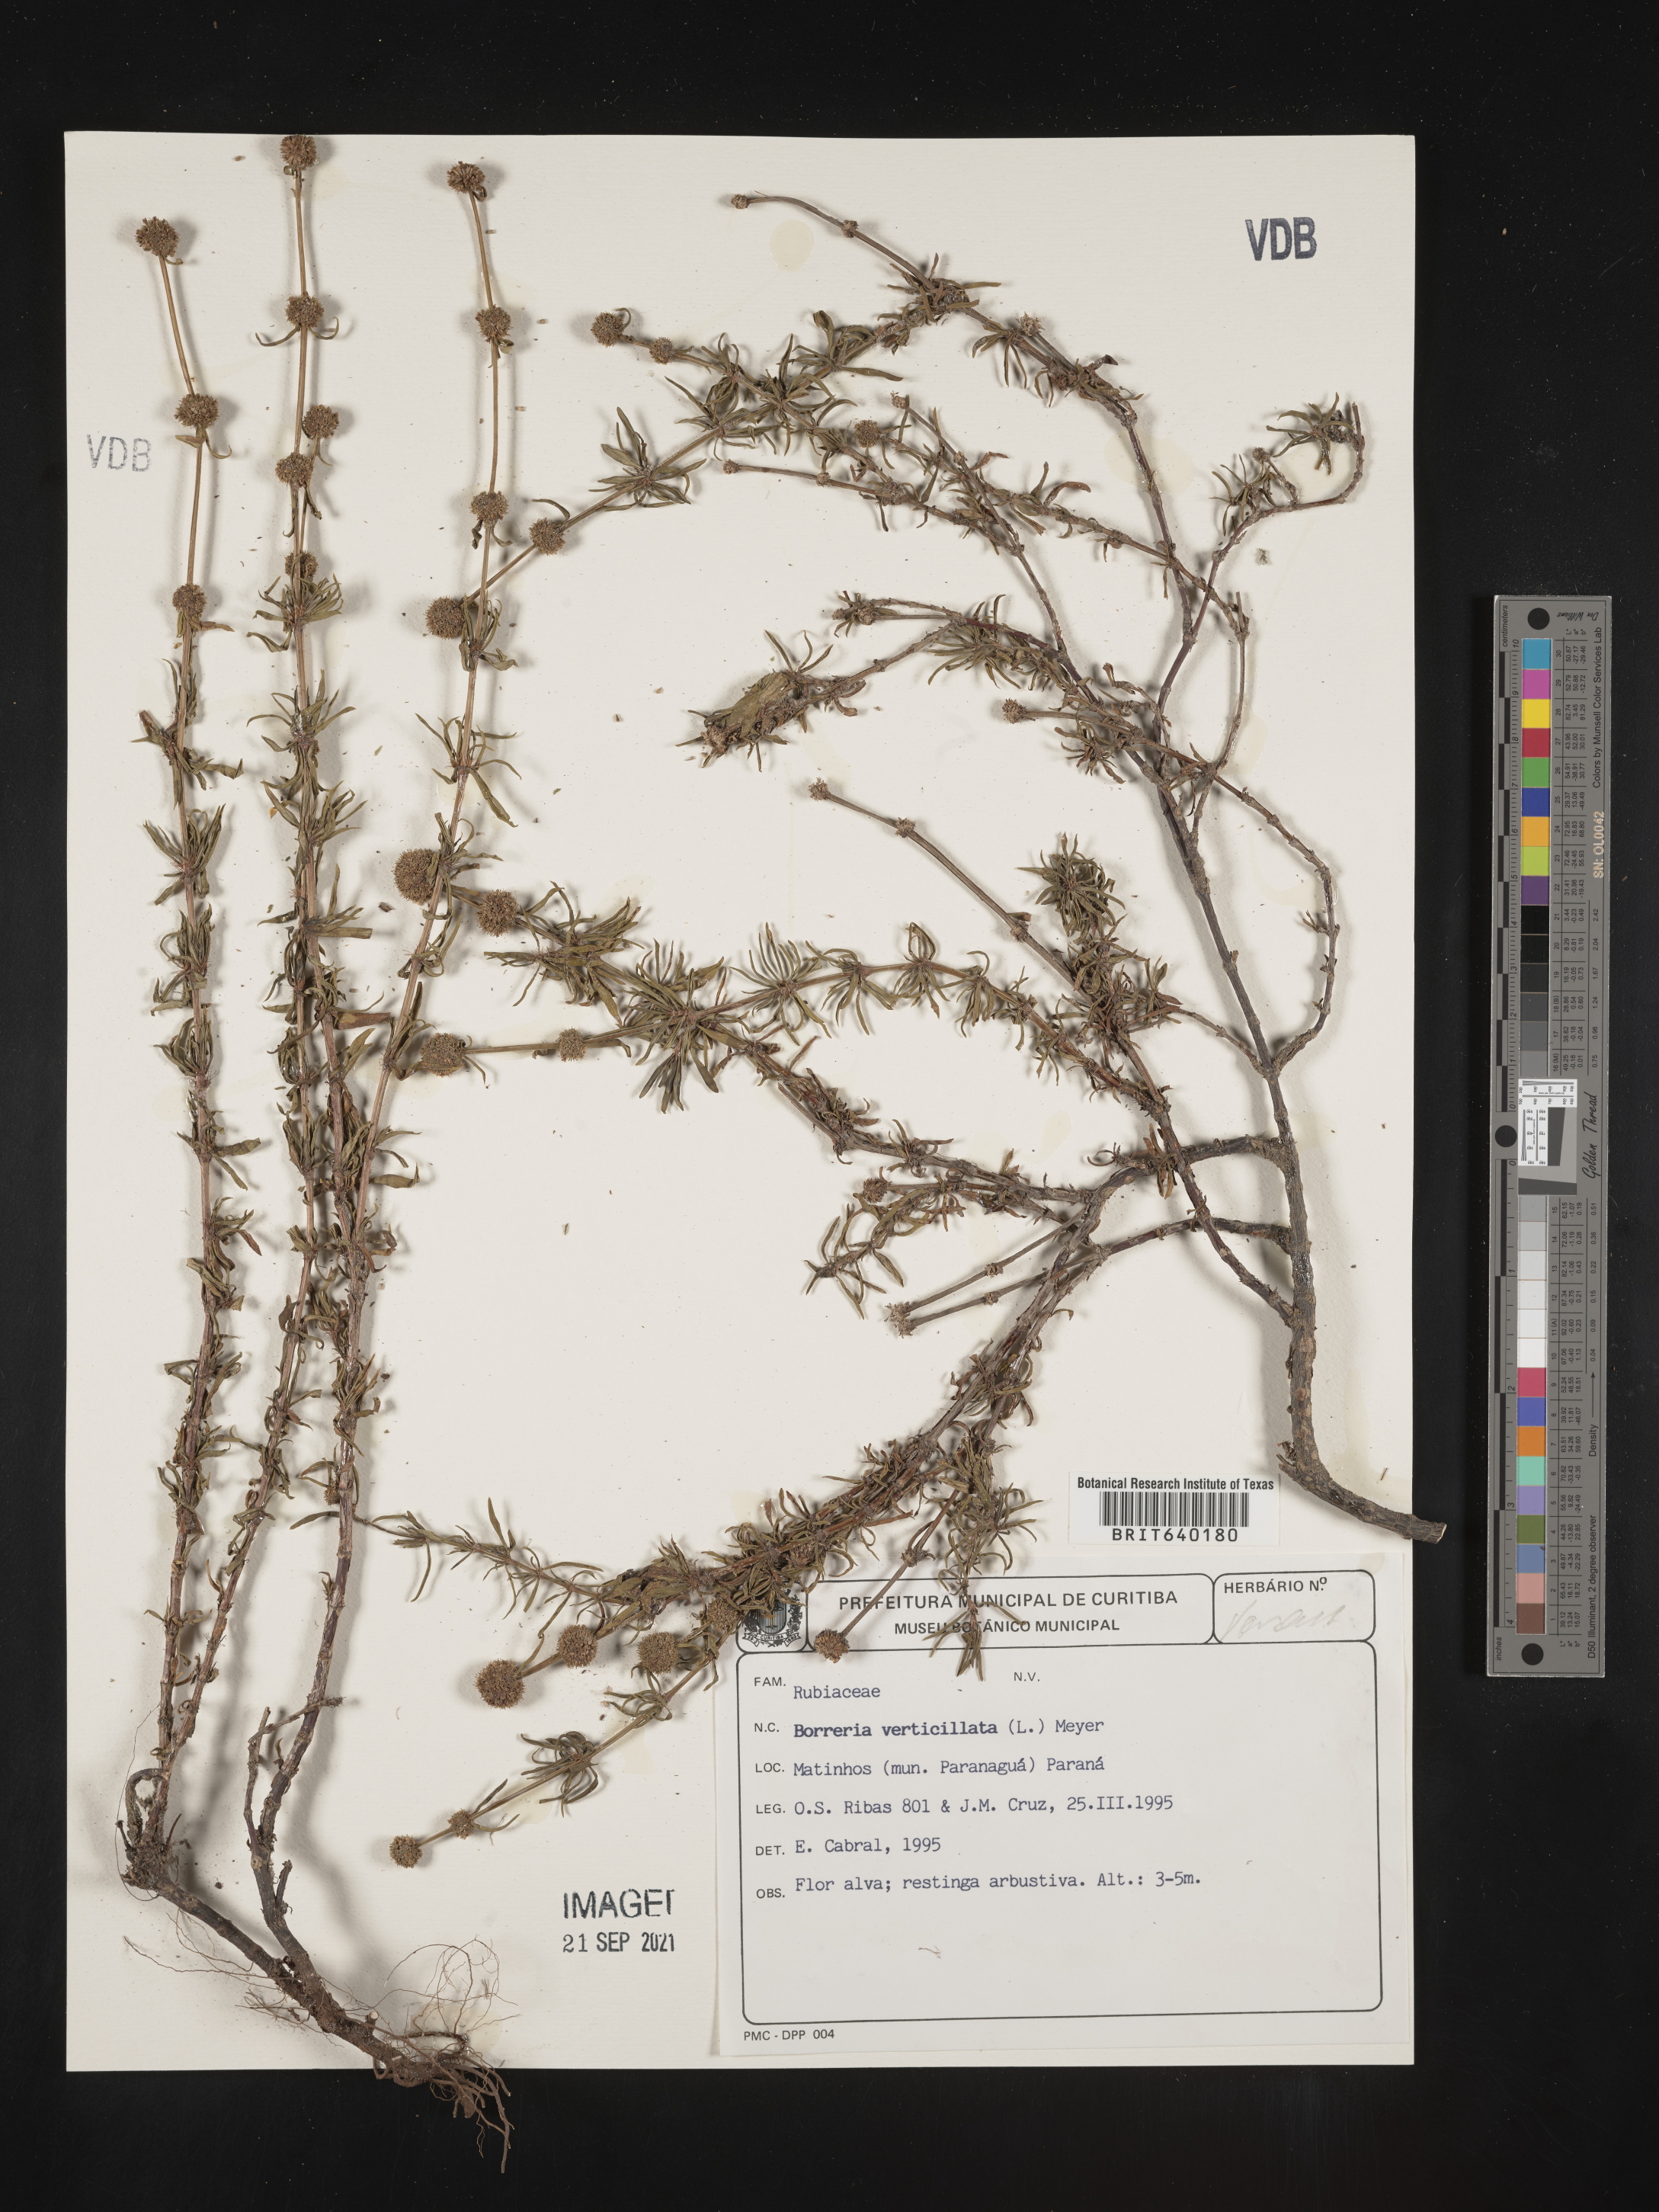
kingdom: Plantae
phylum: Tracheophyta
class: Magnoliopsida
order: Gentianales
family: Rubiaceae
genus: Spermacoce
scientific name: Spermacoce
